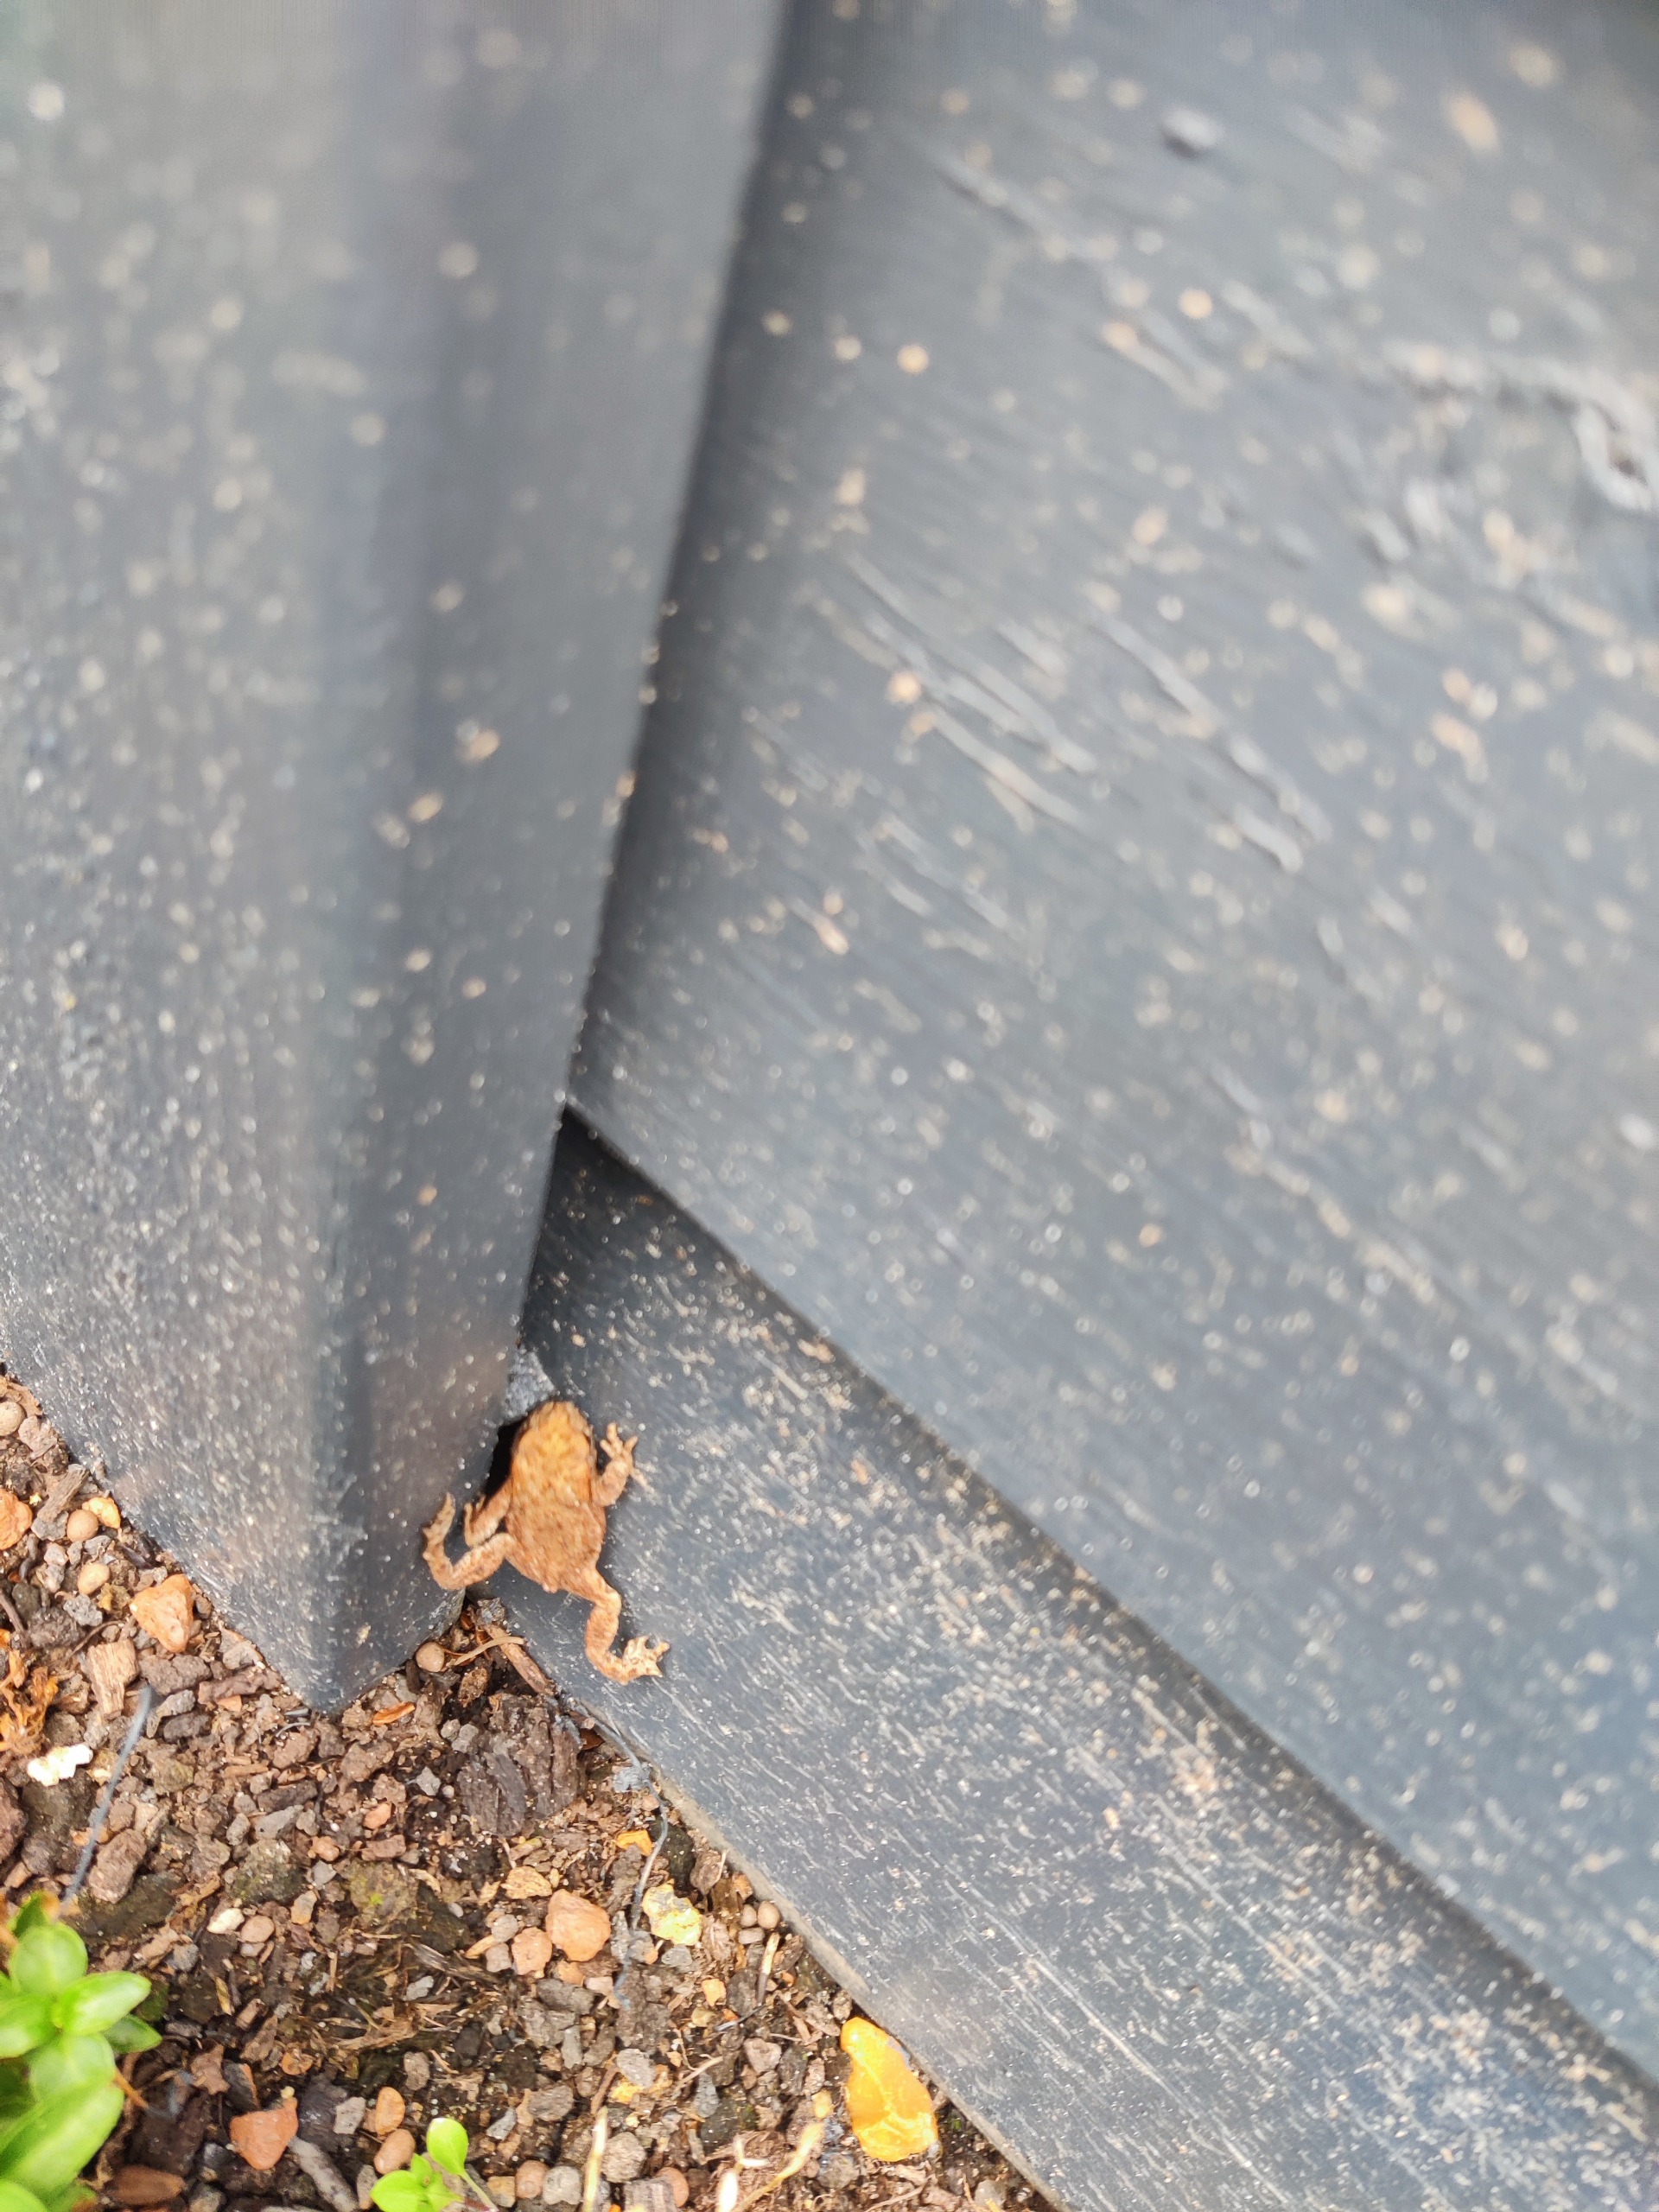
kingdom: Animalia
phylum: Chordata
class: Amphibia
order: Anura
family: Bufonidae
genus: Bufo
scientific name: Bufo bufo
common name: Skrubtudse
